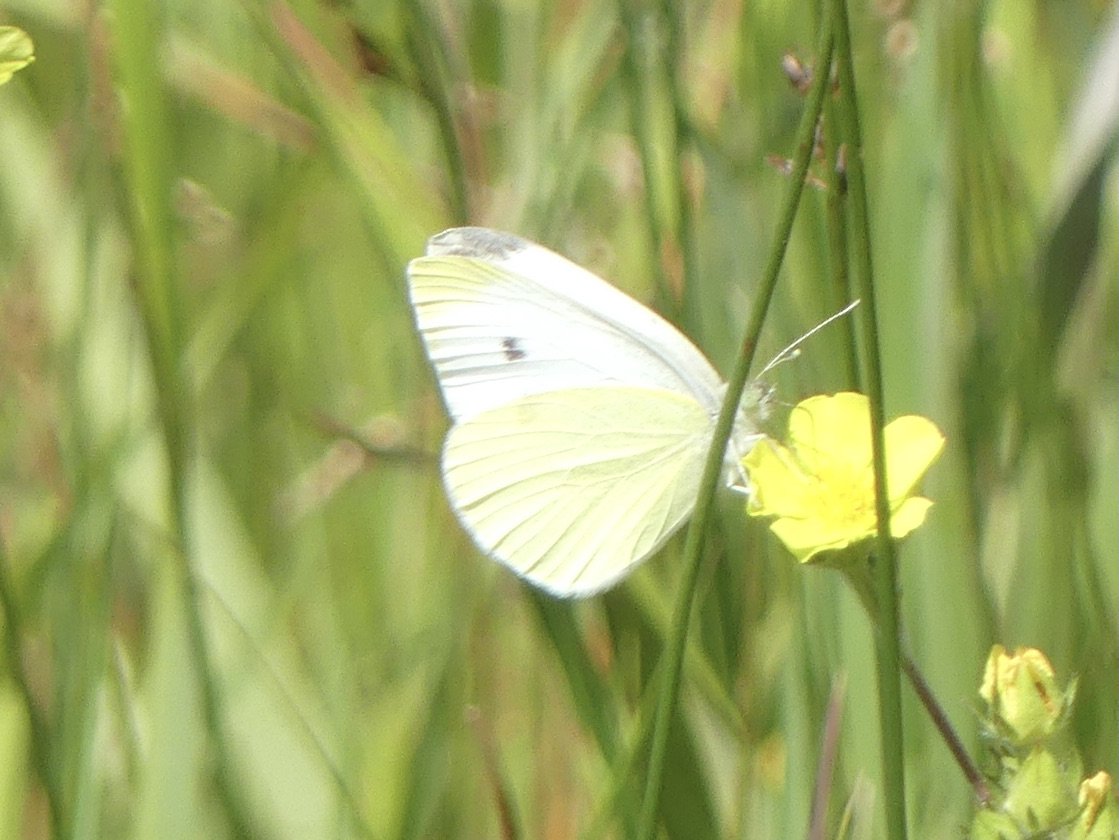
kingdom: Animalia
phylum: Arthropoda
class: Insecta
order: Lepidoptera
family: Pieridae
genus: Pieris
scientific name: Pieris rapae
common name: Cabbage White
